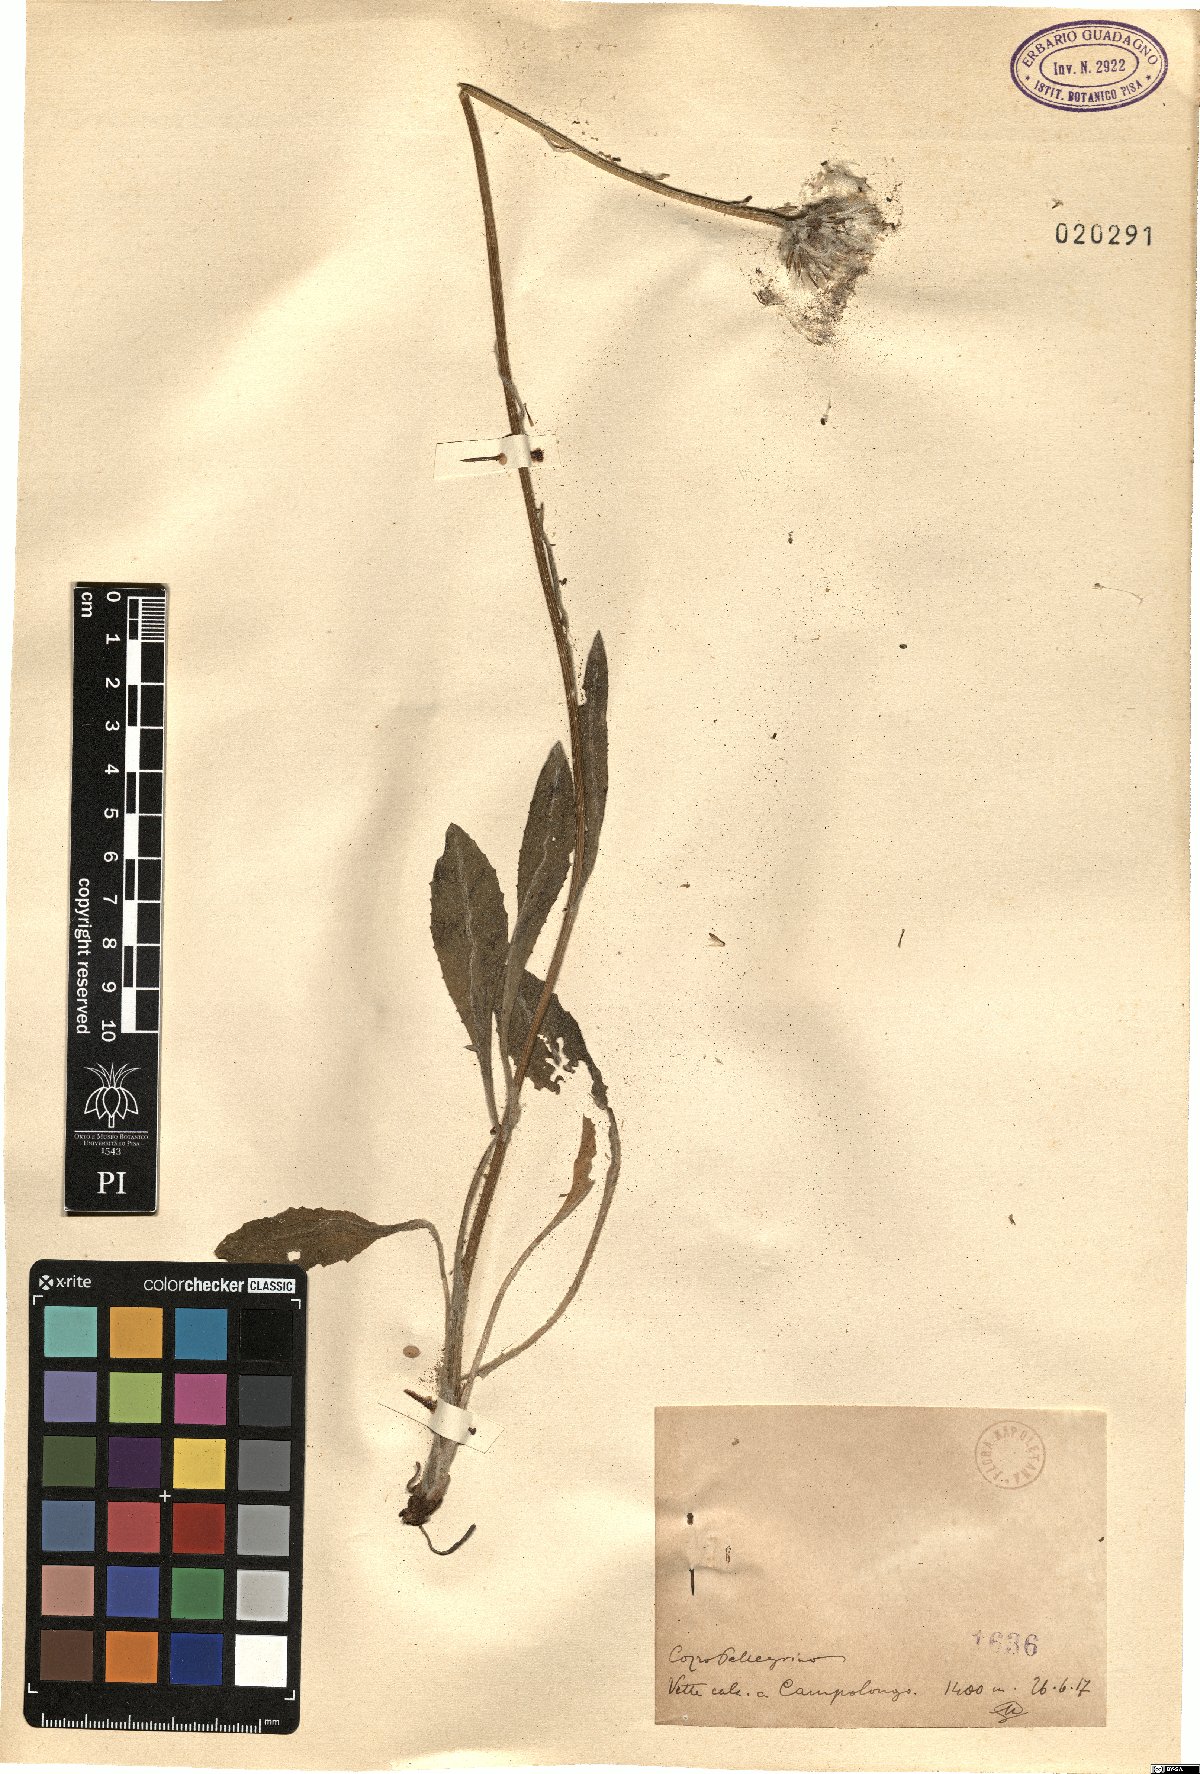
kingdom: Plantae
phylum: Tracheophyta
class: Magnoliopsida
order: Asterales
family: Asteraceae
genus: Senecio
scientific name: Senecio
